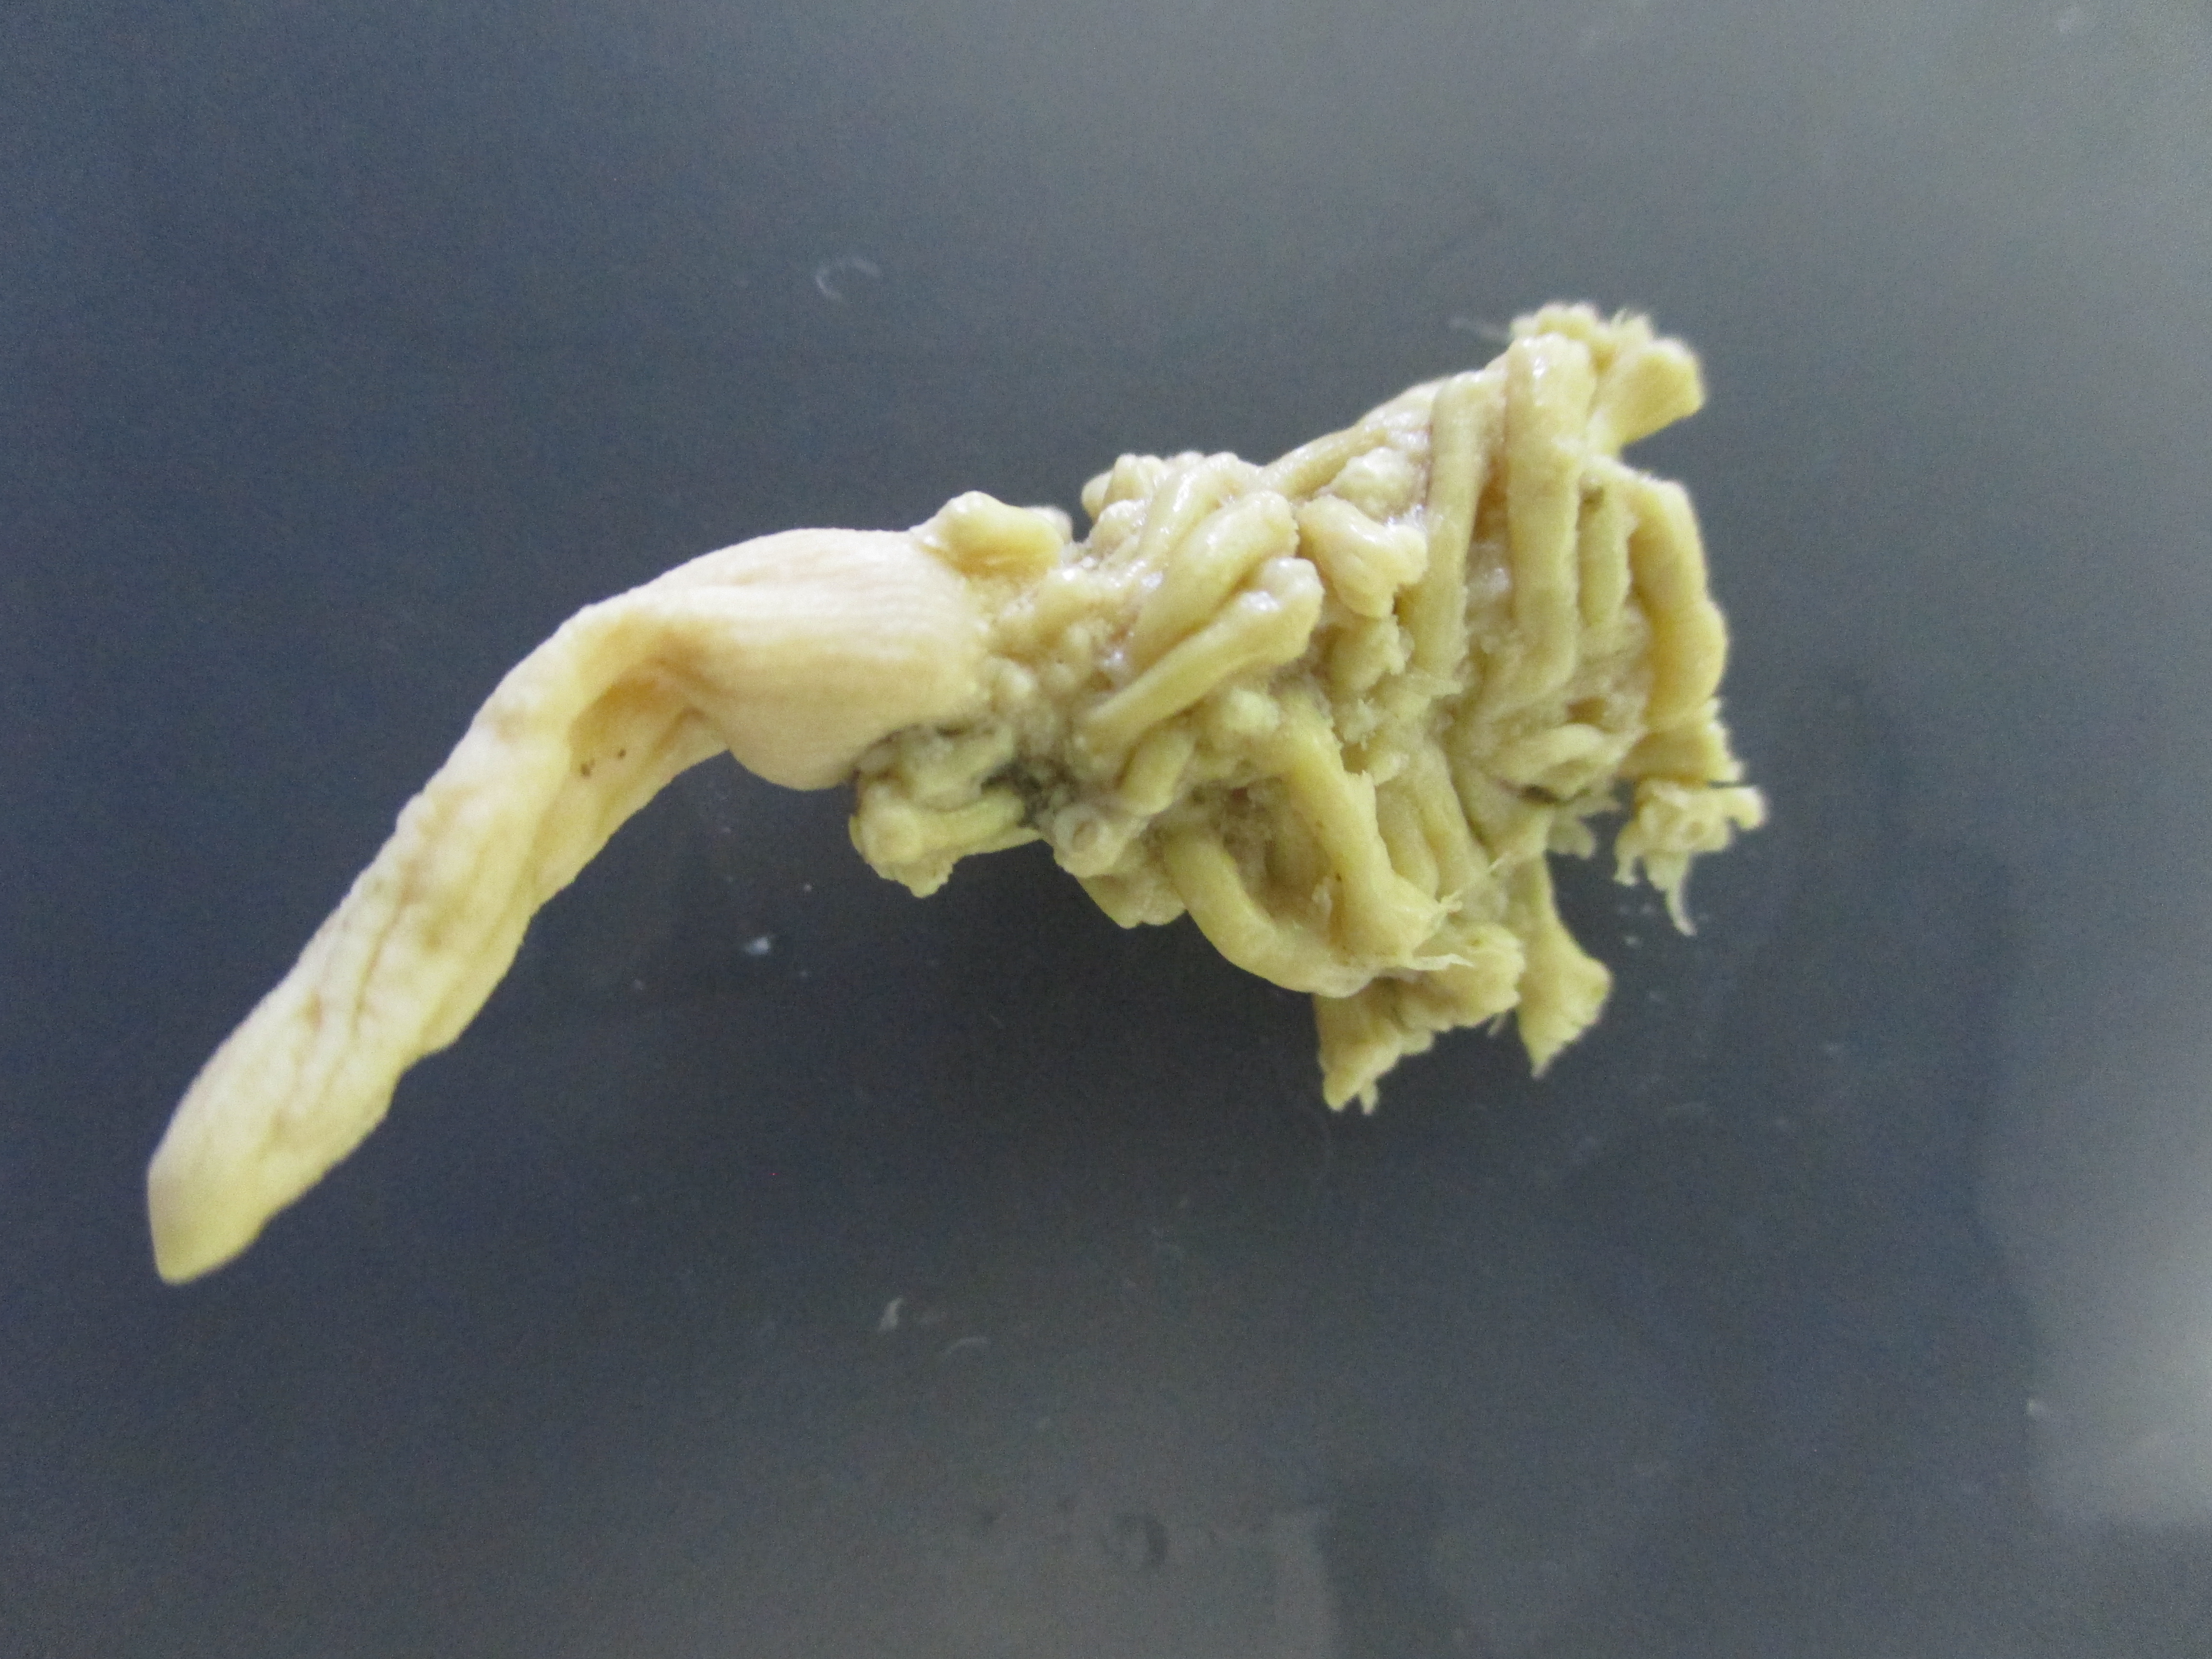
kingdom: Animalia
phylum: Cnidaria
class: Anthozoa
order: Scleralcyonacea
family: Veretillidae
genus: Cavernularia
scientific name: Cavernularia
